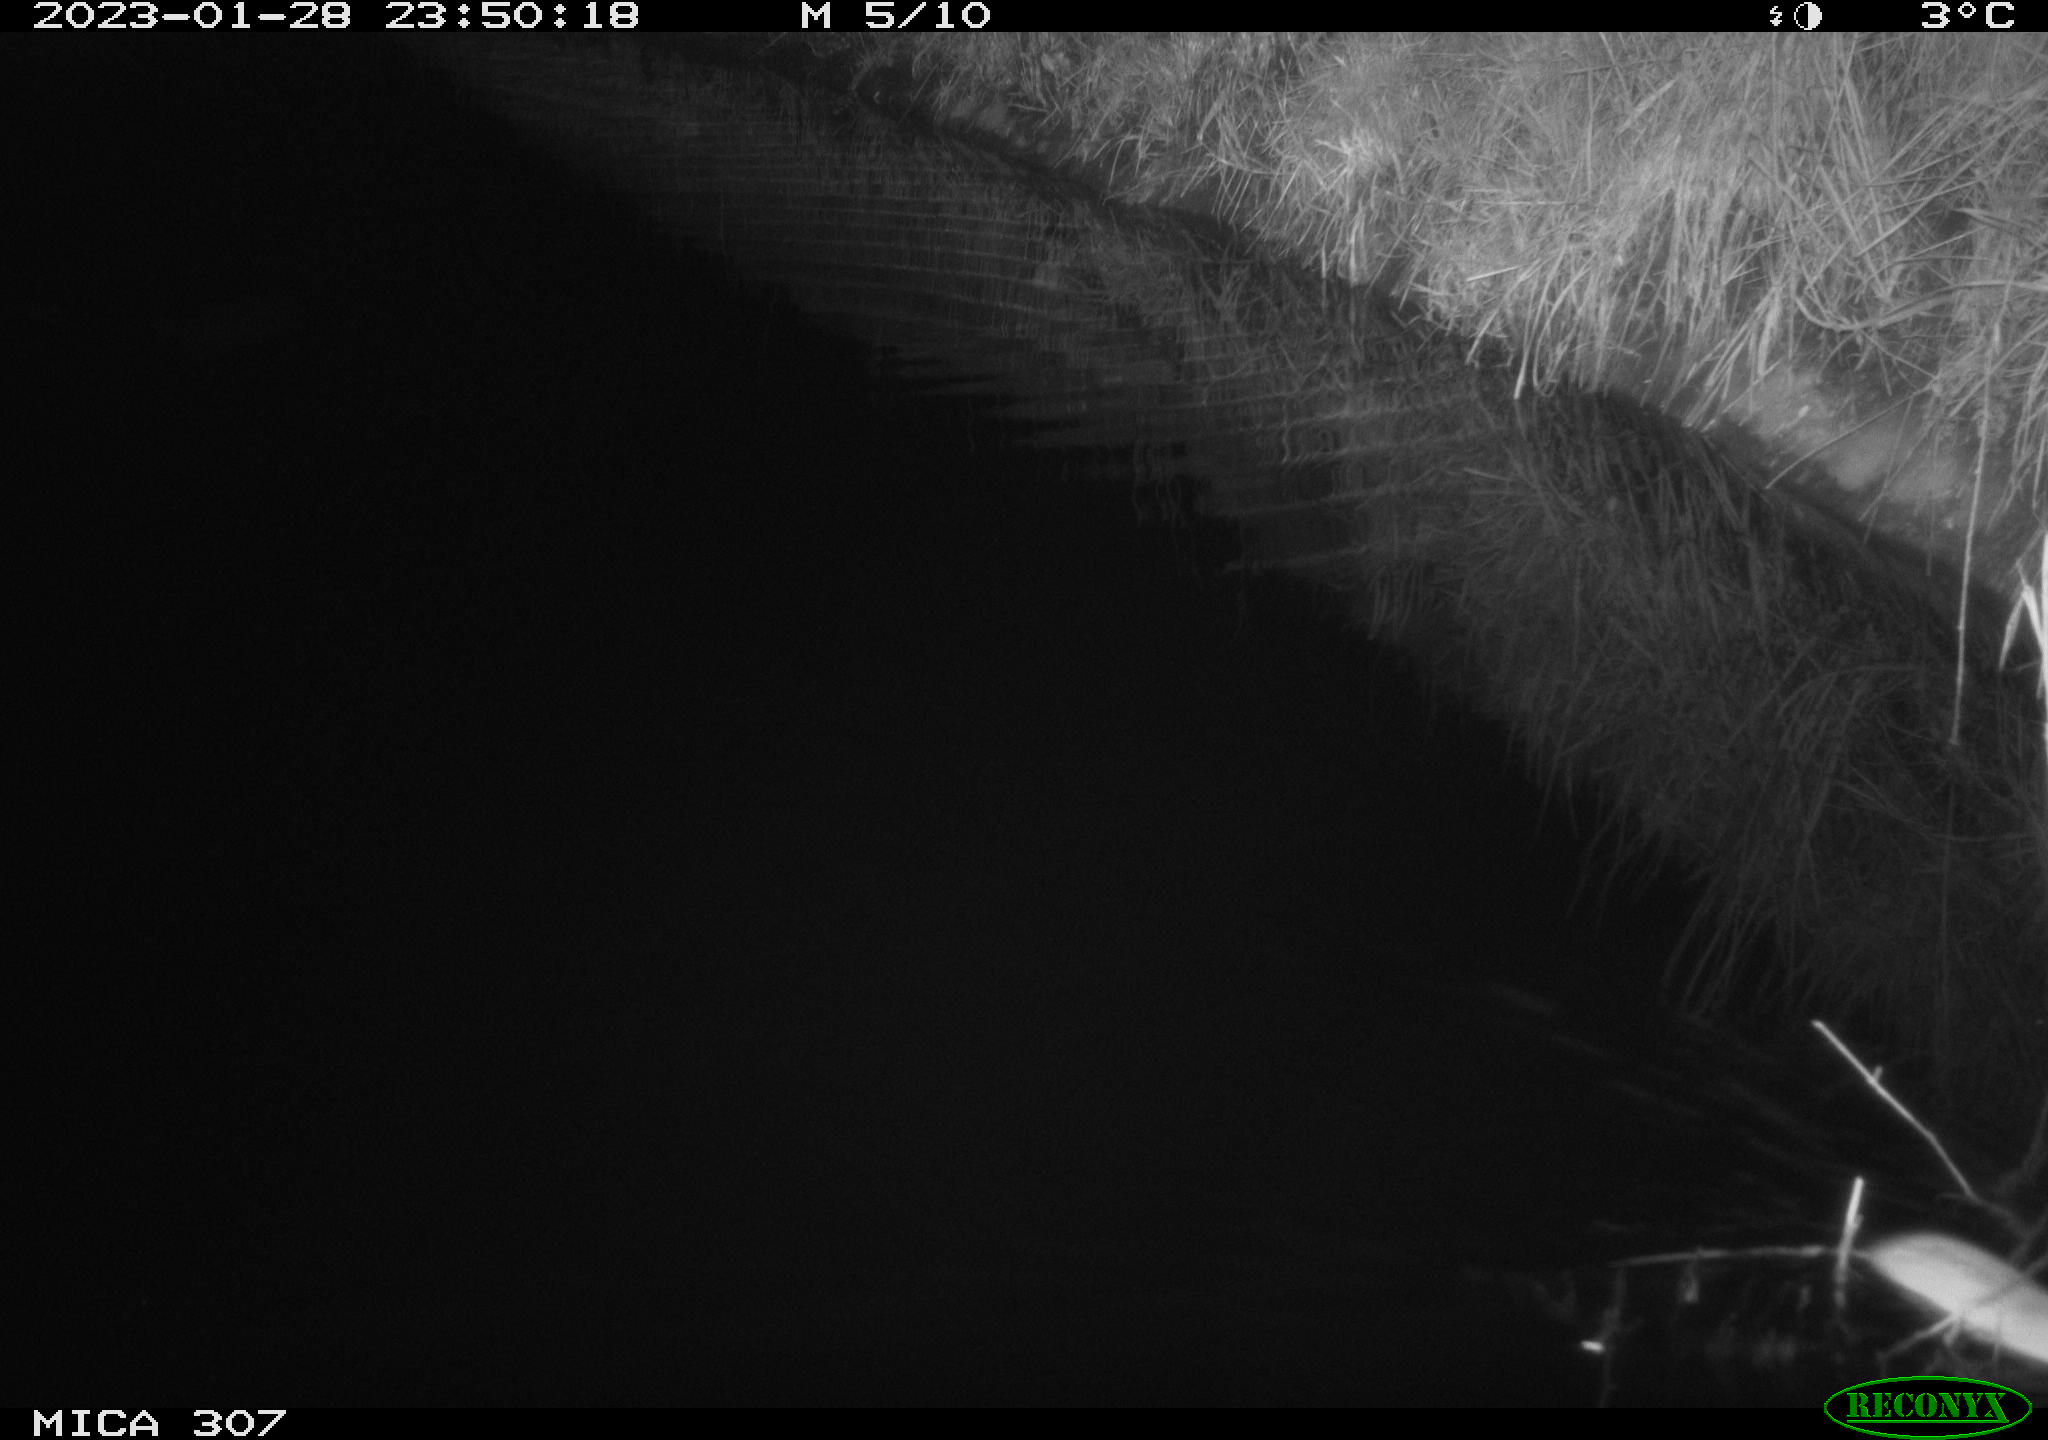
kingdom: Animalia
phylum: Chordata
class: Mammalia
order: Rodentia
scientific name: Rodentia
